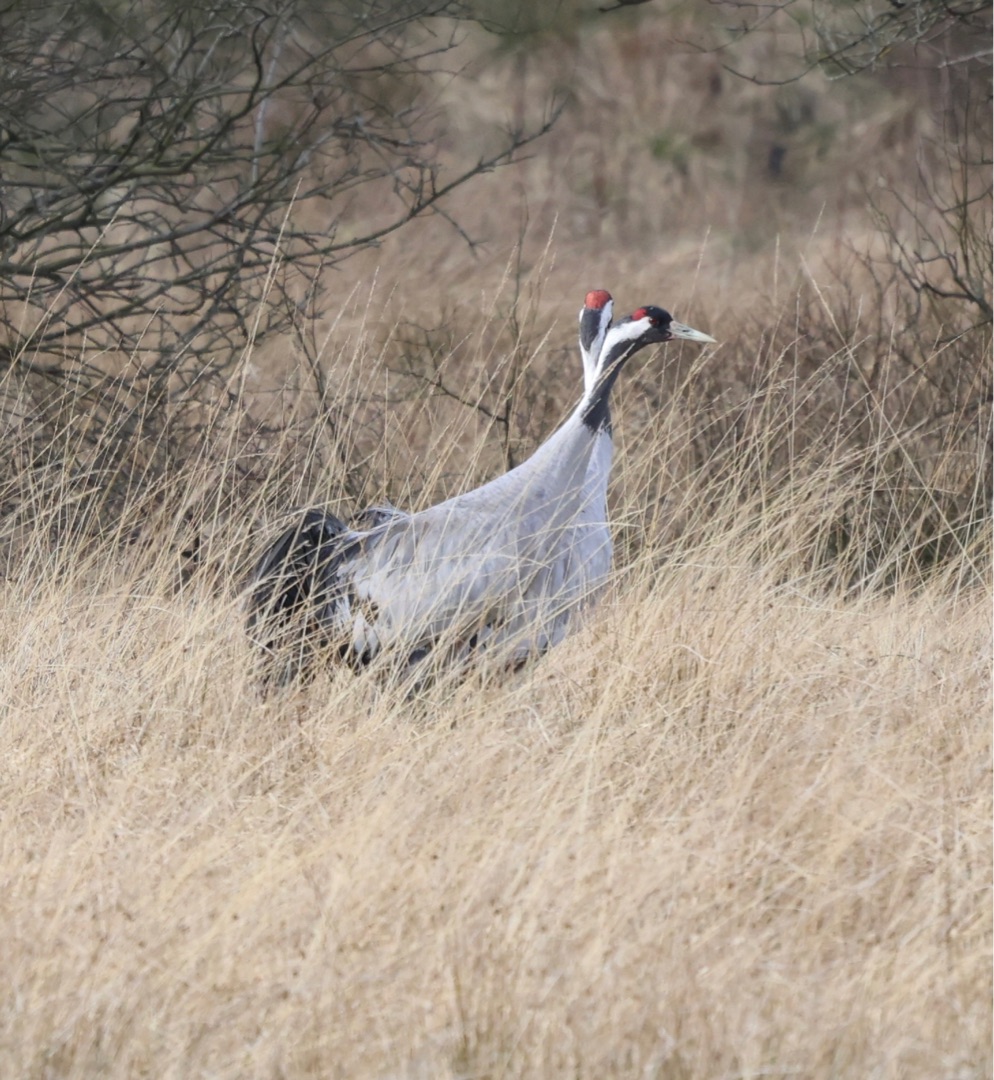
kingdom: Animalia
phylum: Chordata
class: Aves
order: Gruiformes
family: Gruidae
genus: Grus
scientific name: Grus grus
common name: Trane
